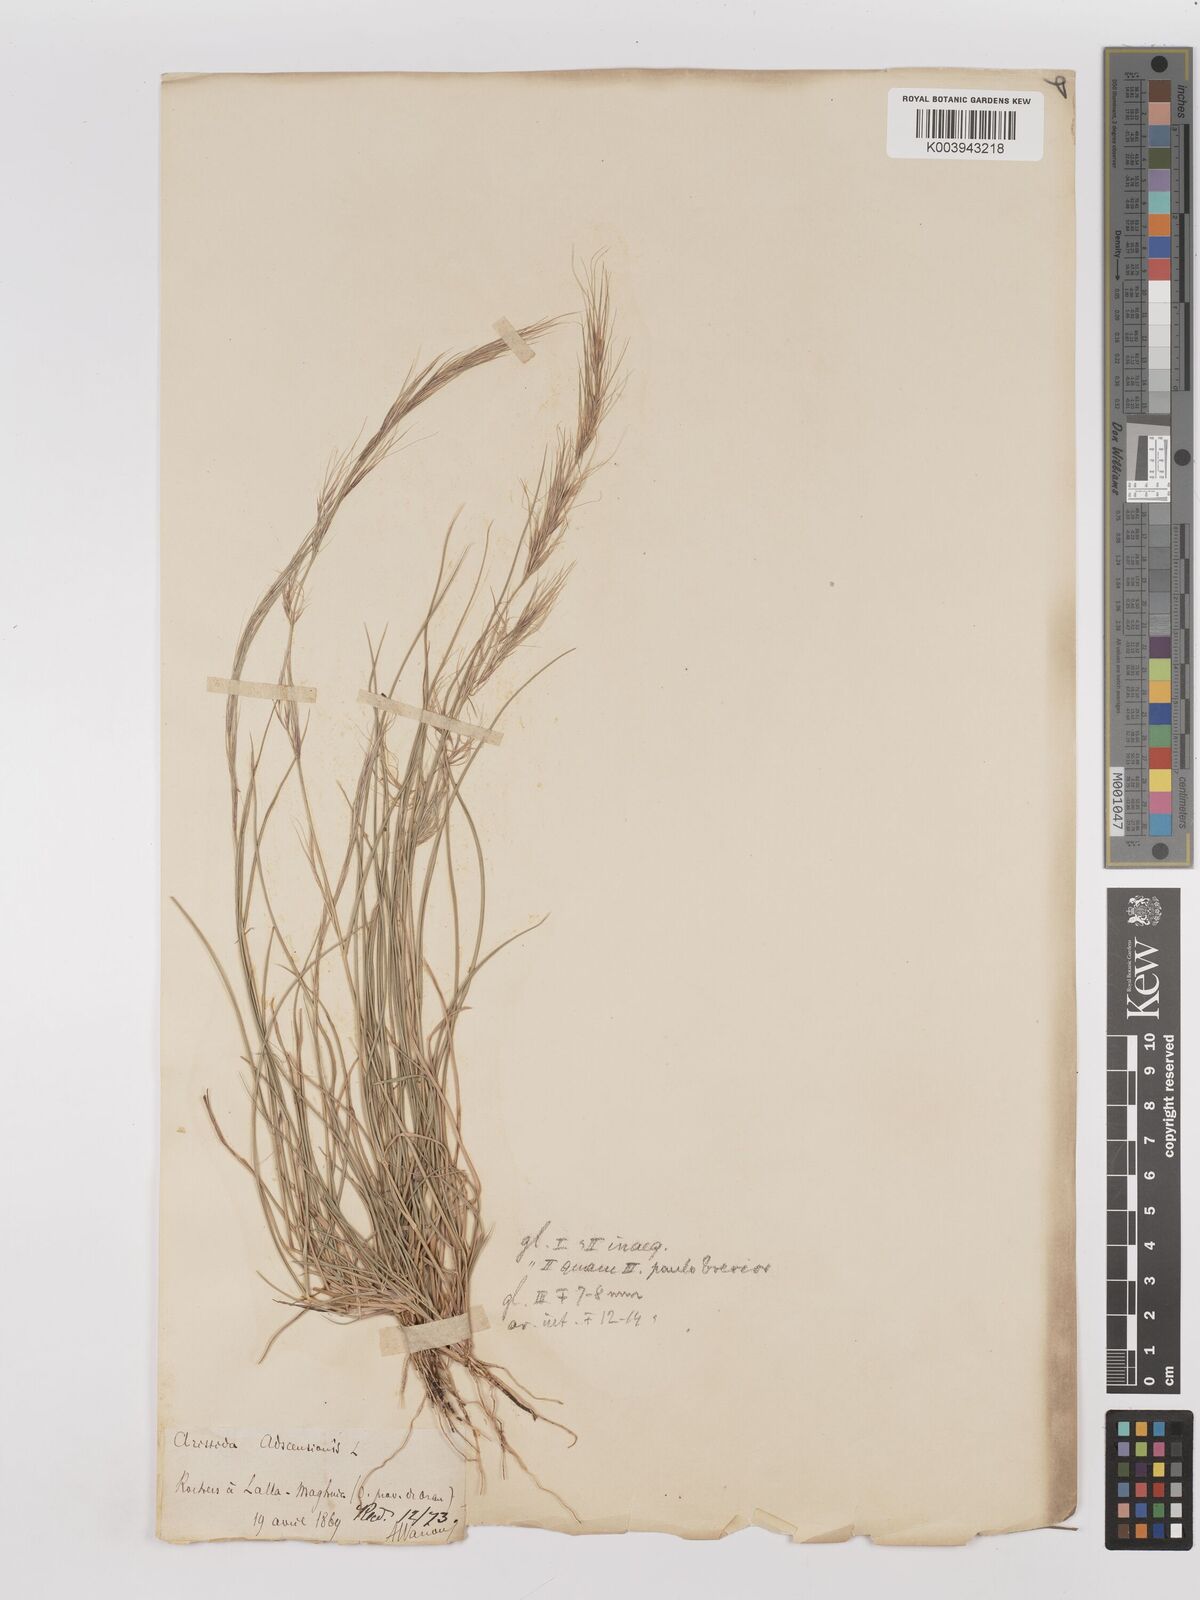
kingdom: Plantae
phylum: Tracheophyta
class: Liliopsida
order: Poales
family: Poaceae
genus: Aristida
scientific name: Aristida adscensionis
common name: Sixweeks threeawn
